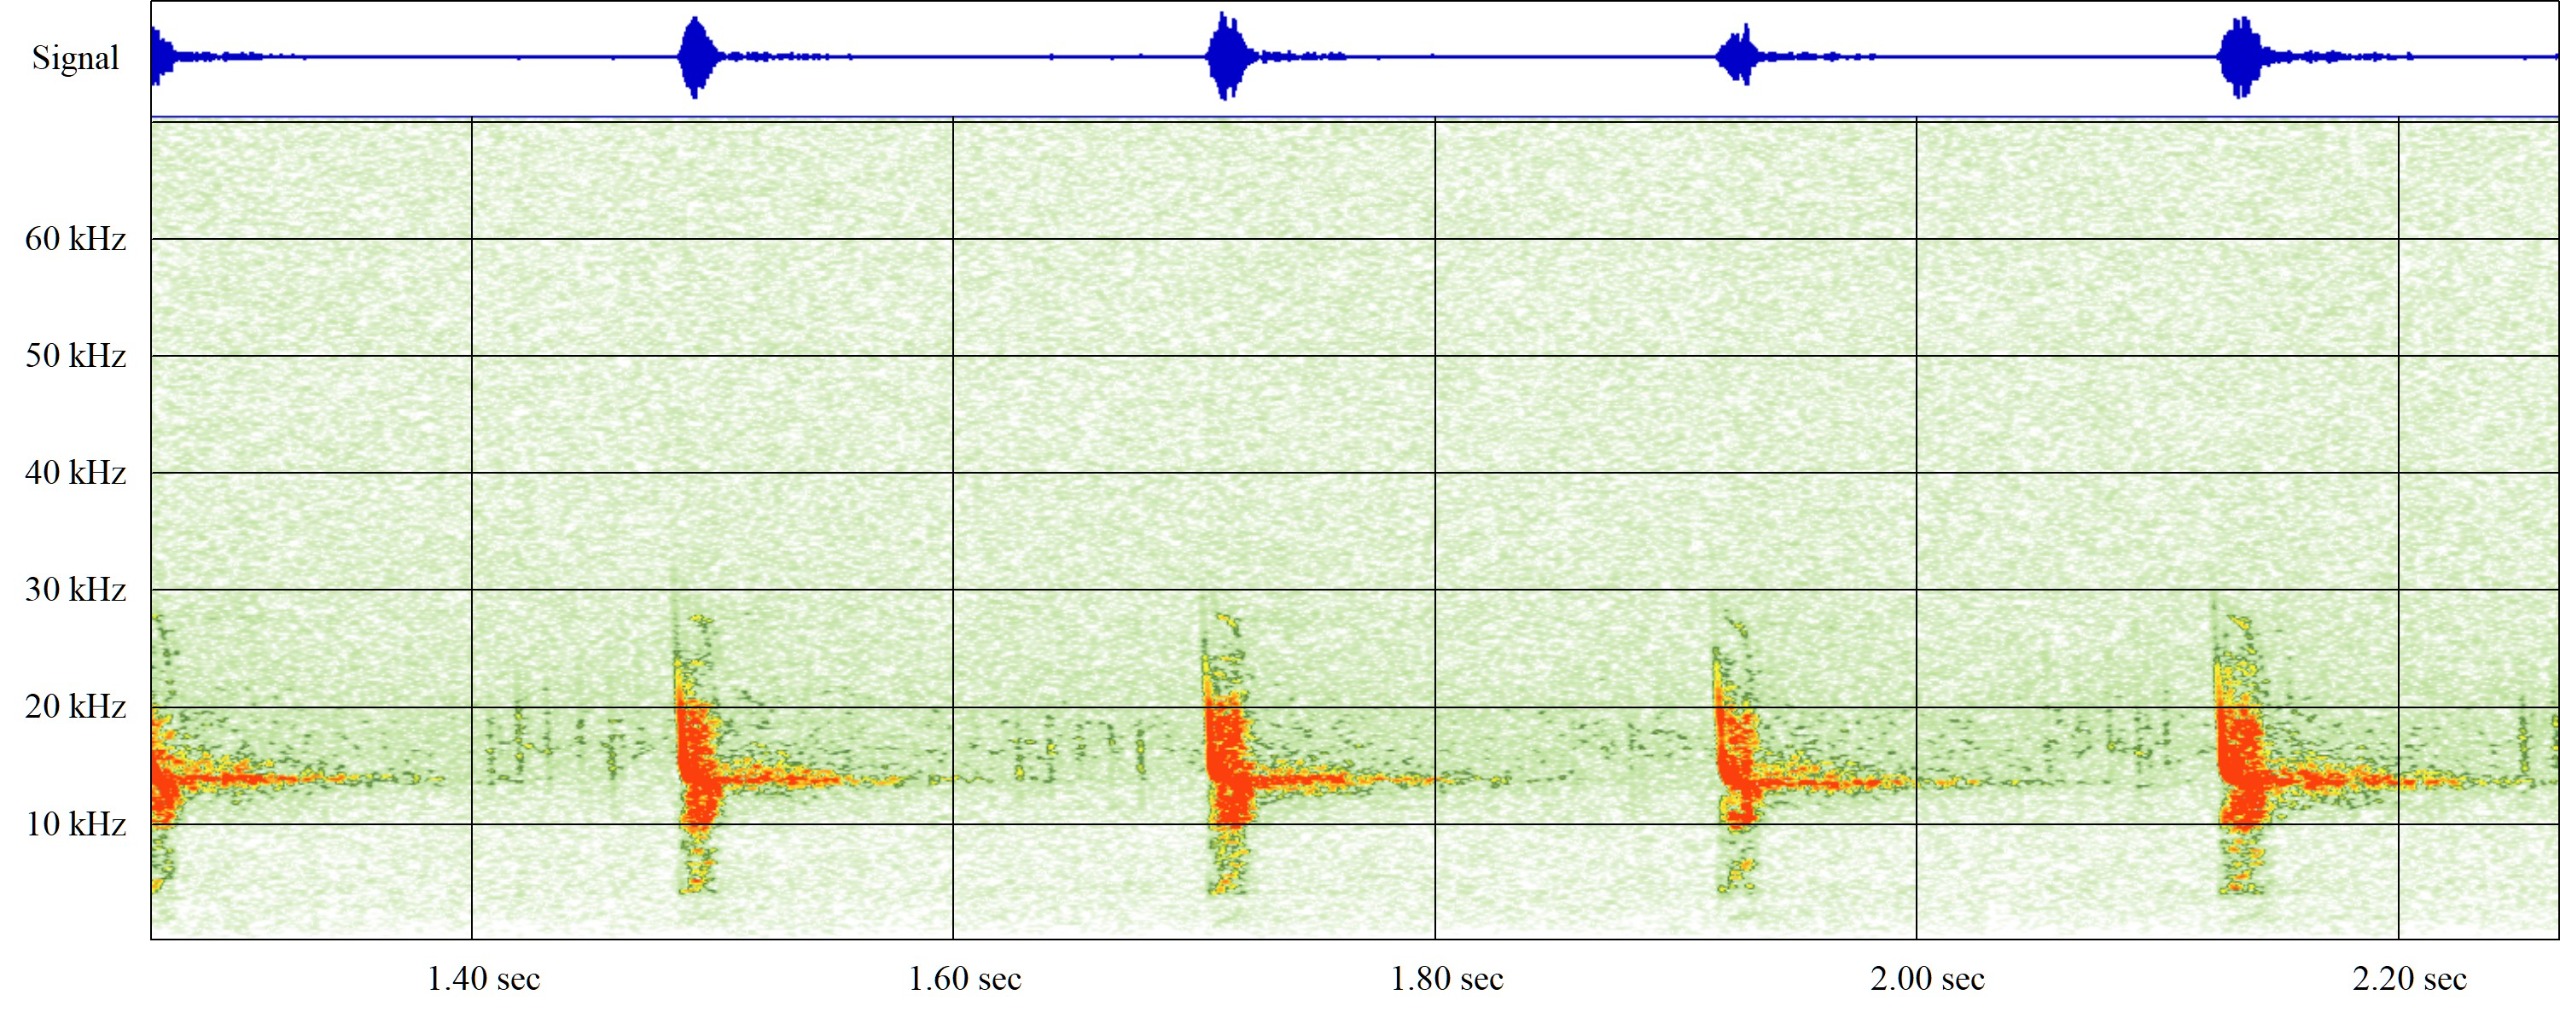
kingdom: Animalia
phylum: Chordata
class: Mammalia
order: Chiroptera
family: Vespertilionidae
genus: Vespertilio
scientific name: Vespertilio murinus
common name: Skimmelflagermus
